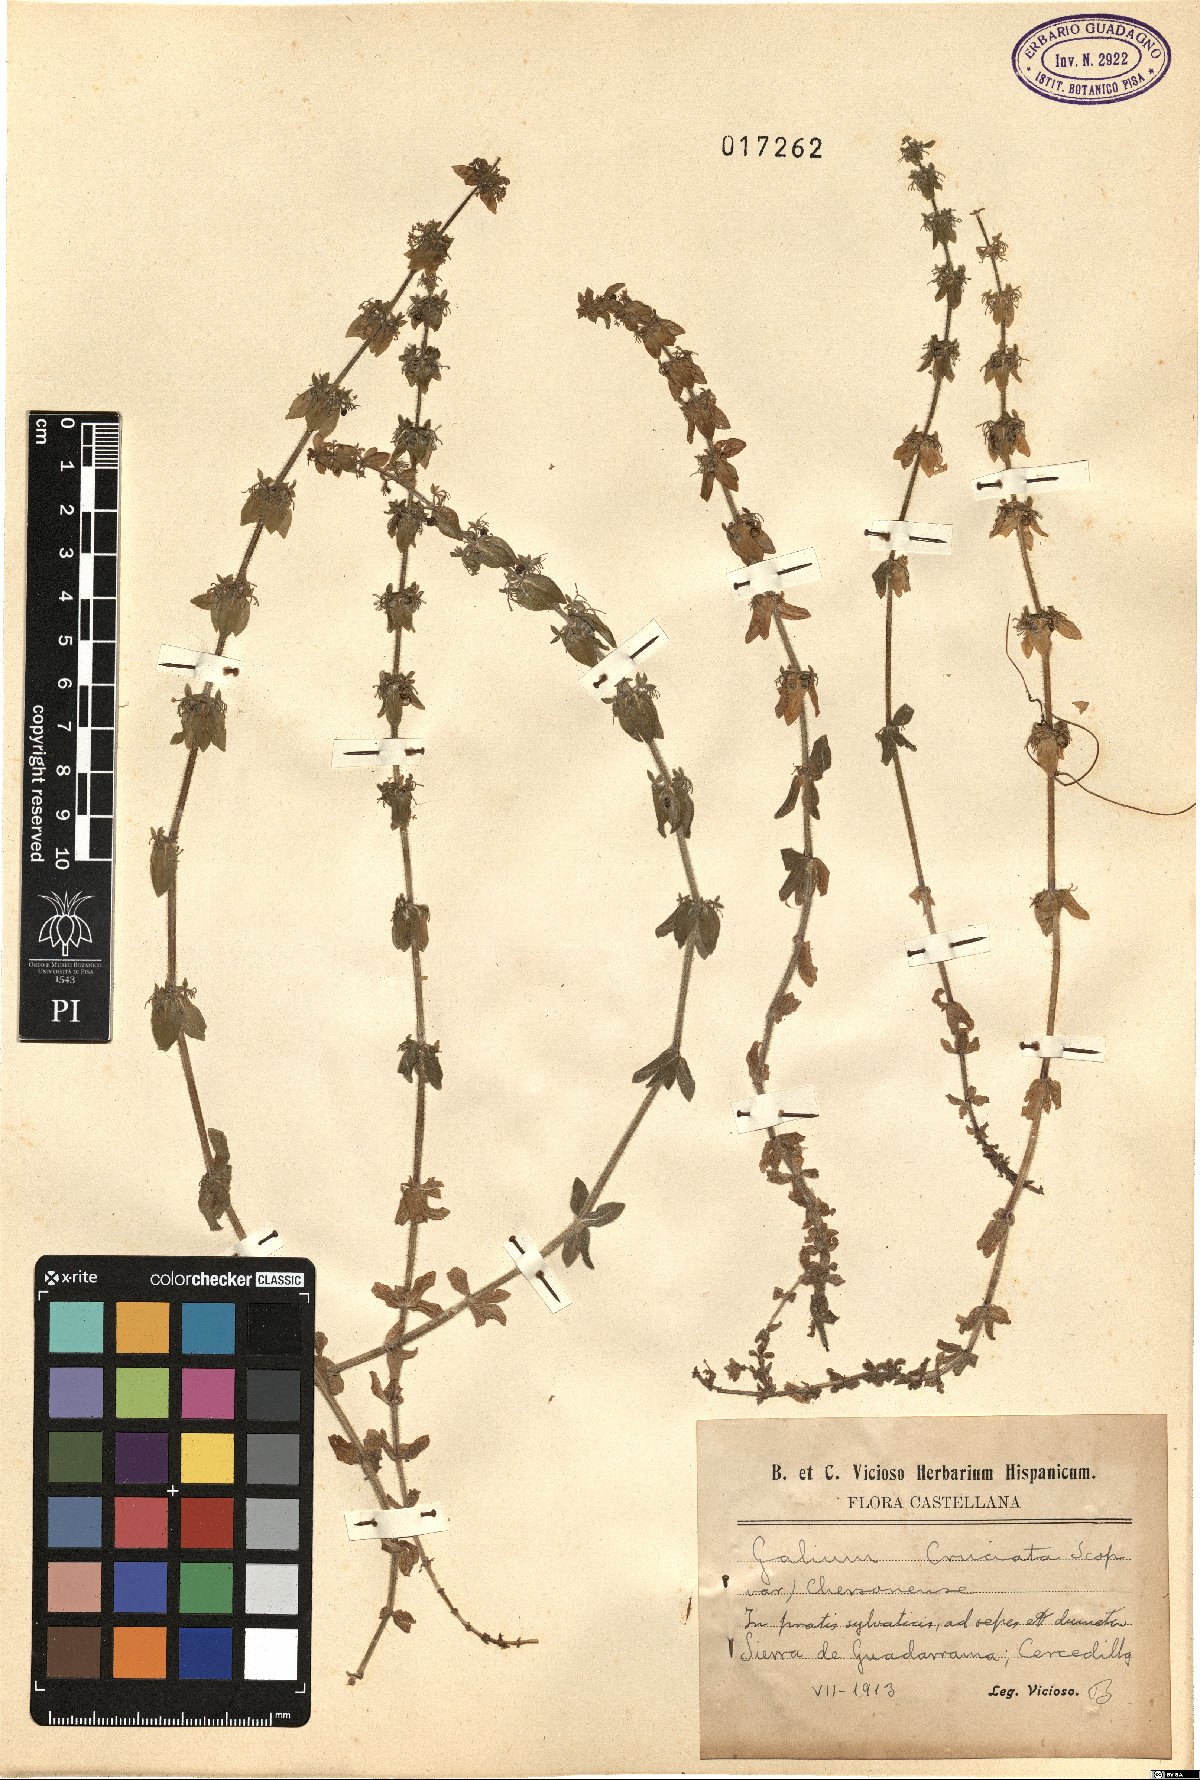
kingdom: Plantae
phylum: Tracheophyta
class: Magnoliopsida
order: Gentianales
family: Rubiaceae
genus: Cruciata
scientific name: Cruciata laevipes
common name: Crosswort
